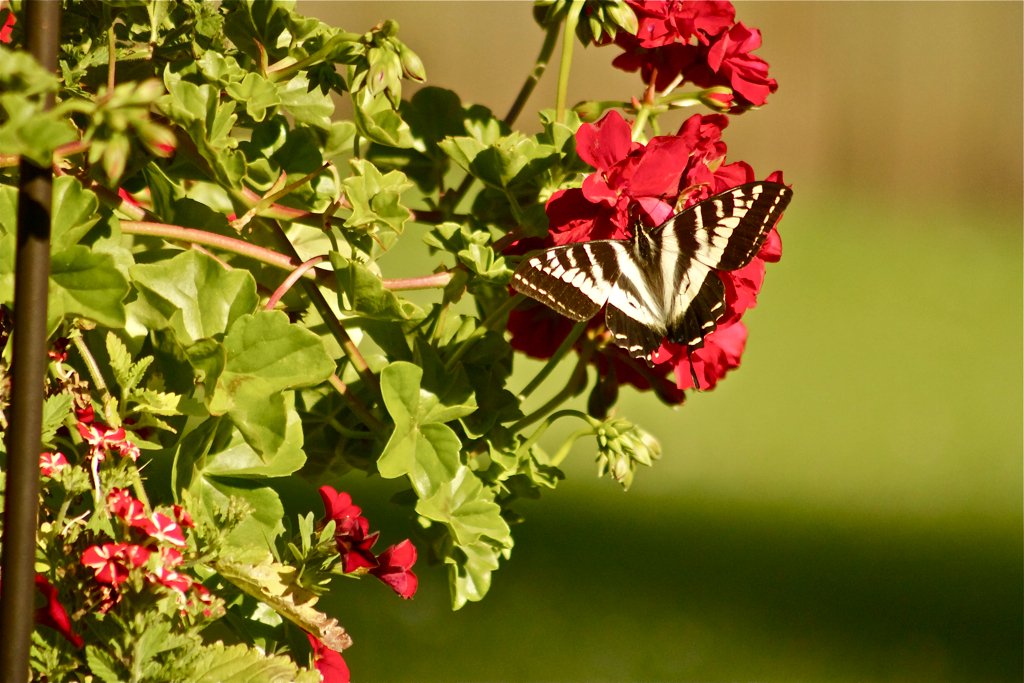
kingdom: Animalia
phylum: Arthropoda
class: Insecta
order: Lepidoptera
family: Papilionidae
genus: Pterourus
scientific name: Pterourus rutulus
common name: Western Tiger Swallowtail
